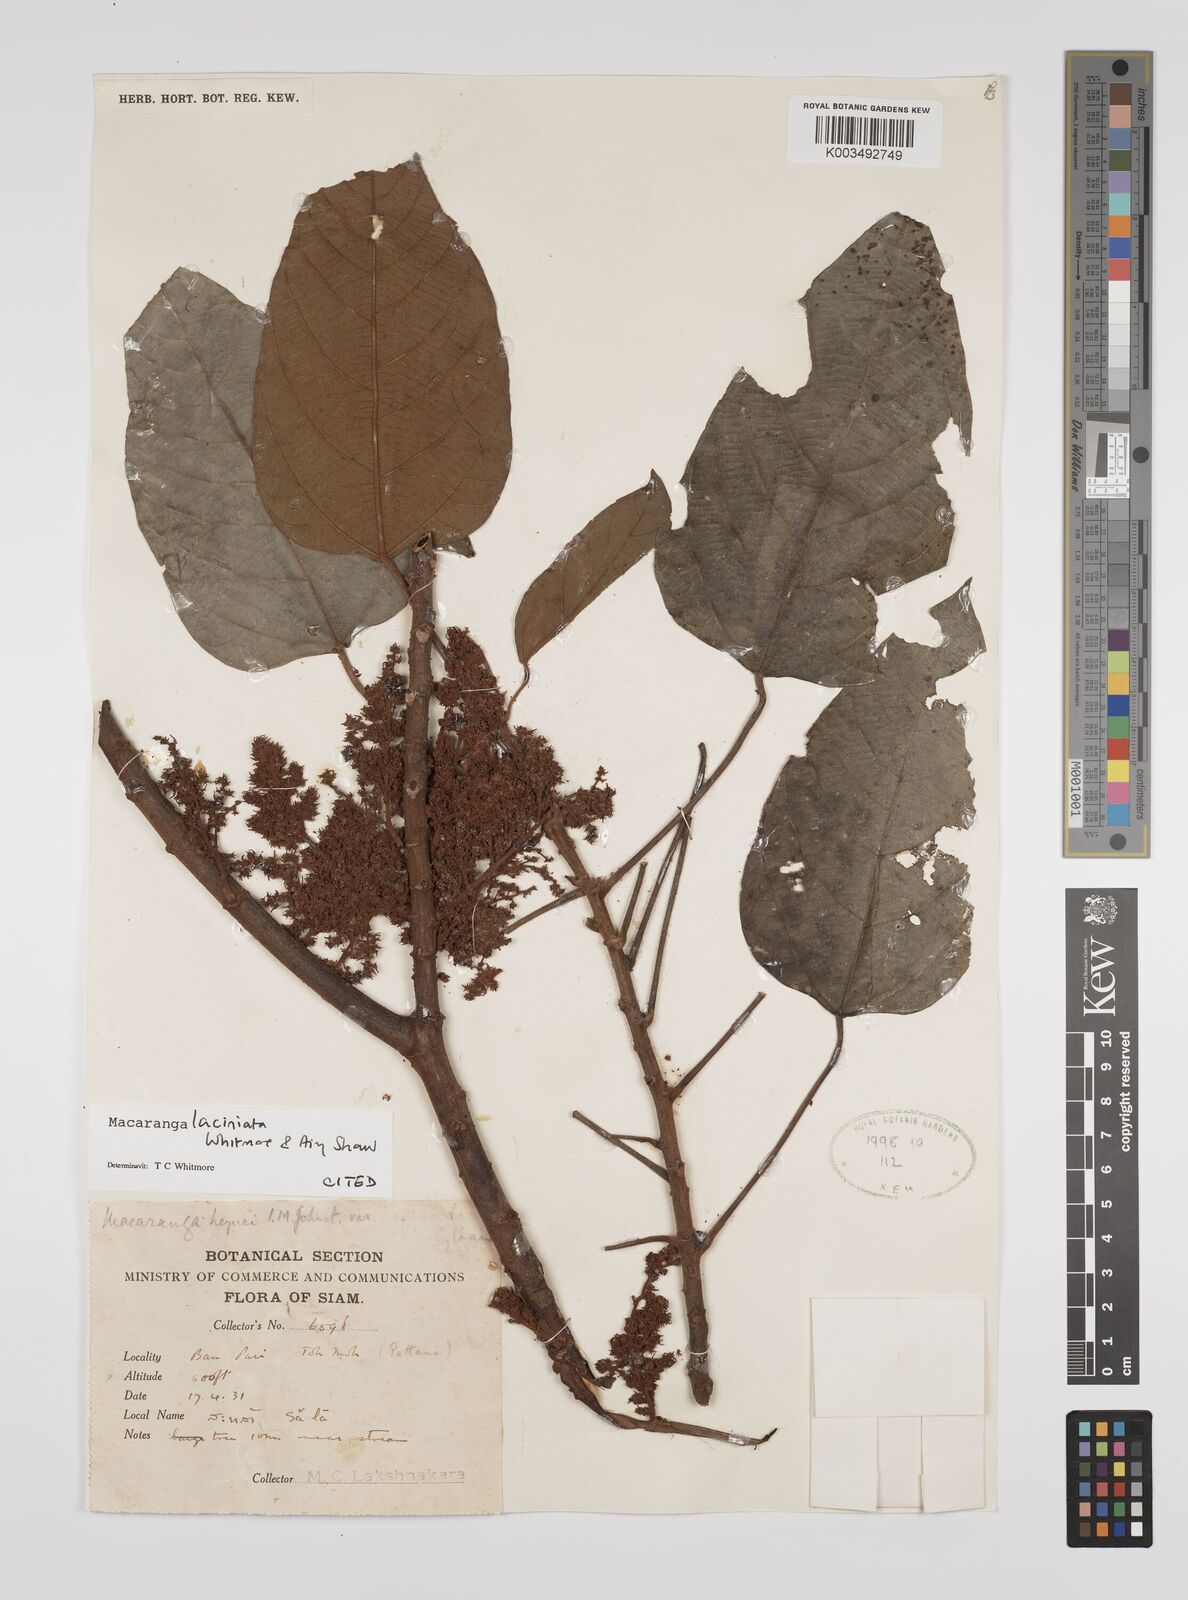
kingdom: Plantae
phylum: Tracheophyta
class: Magnoliopsida
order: Malpighiales
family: Euphorbiaceae
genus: Macaranga
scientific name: Macaranga laciniata
